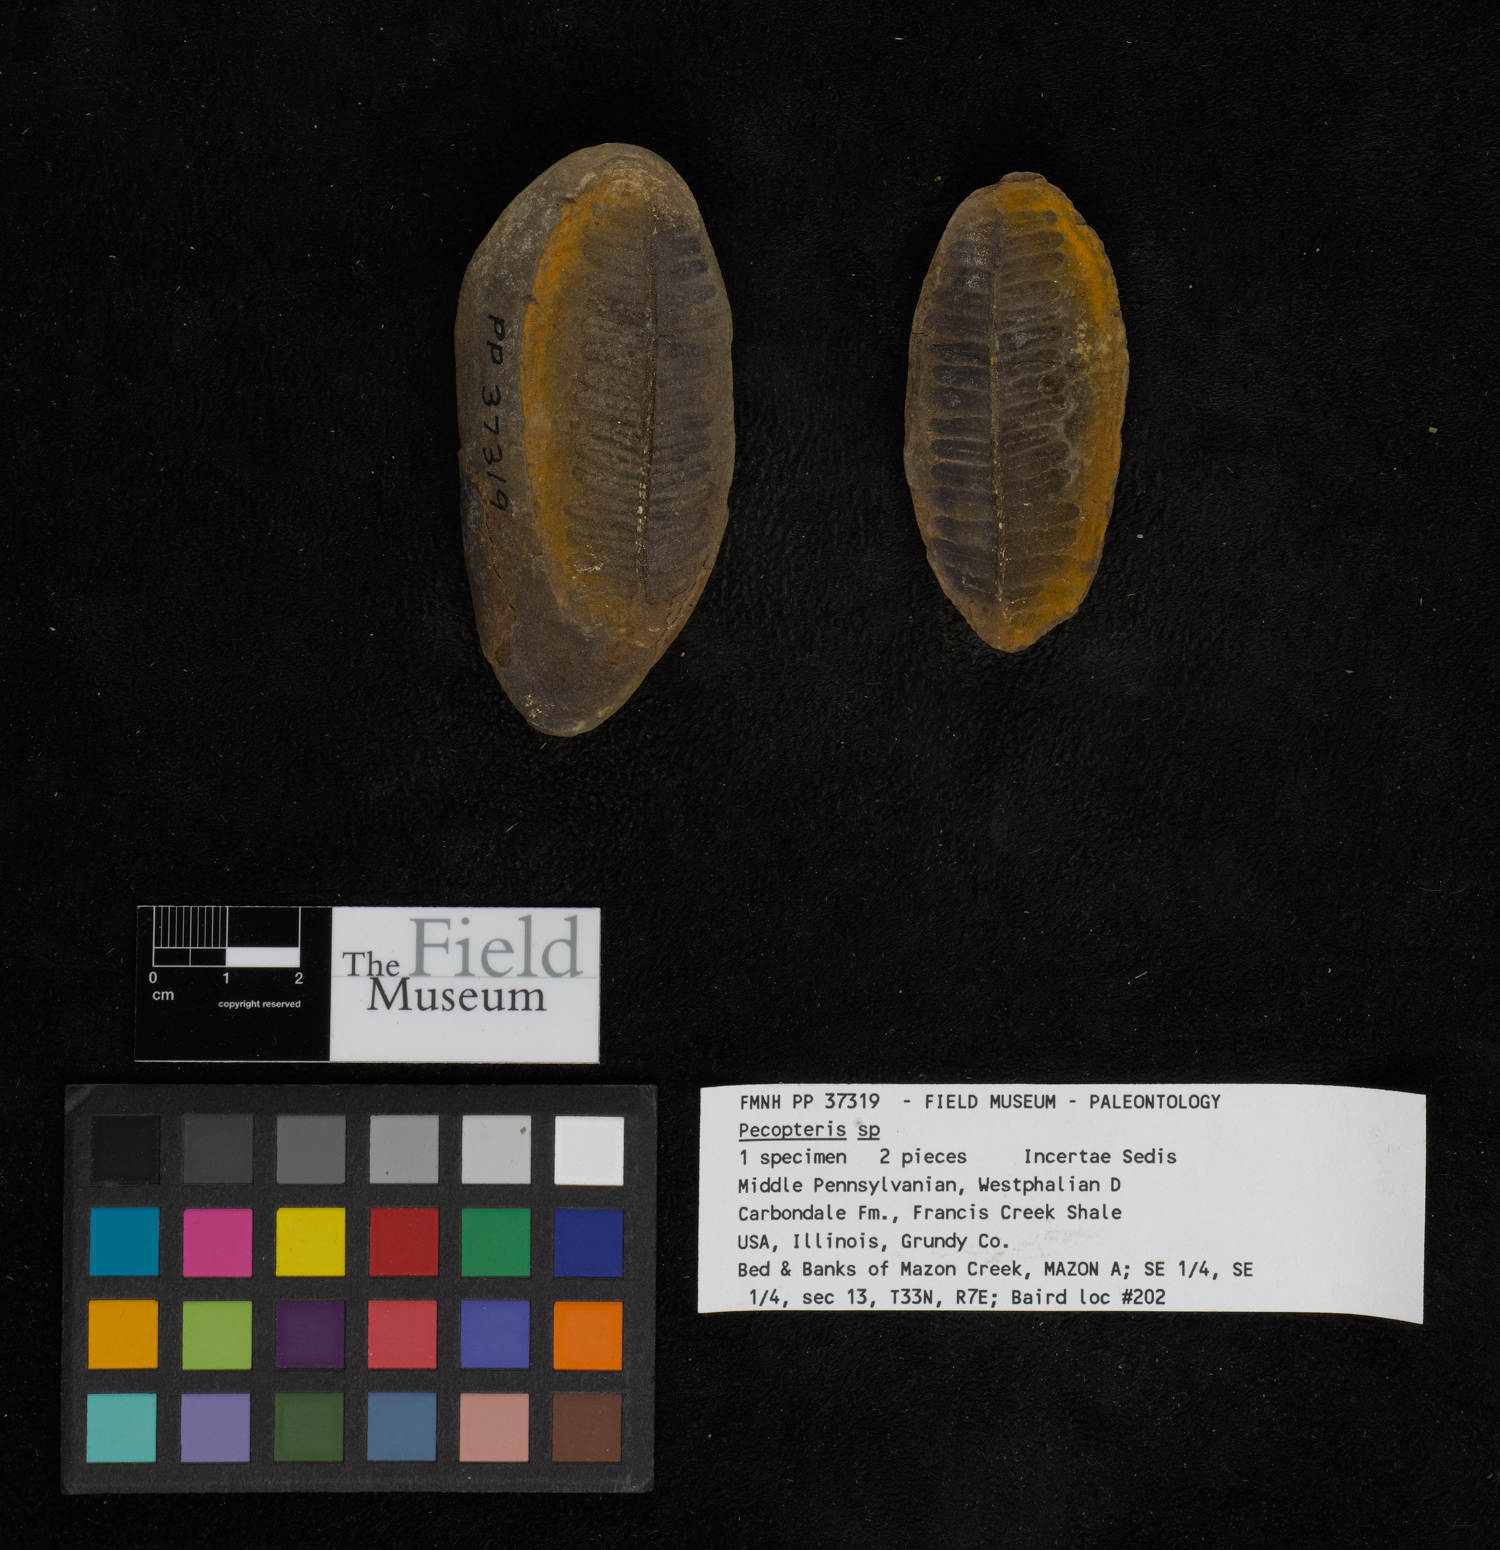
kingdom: Plantae
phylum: Tracheophyta
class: Polypodiopsida
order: Marattiales
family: Asterothecaceae
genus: Pecopteris
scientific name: Pecopteris
